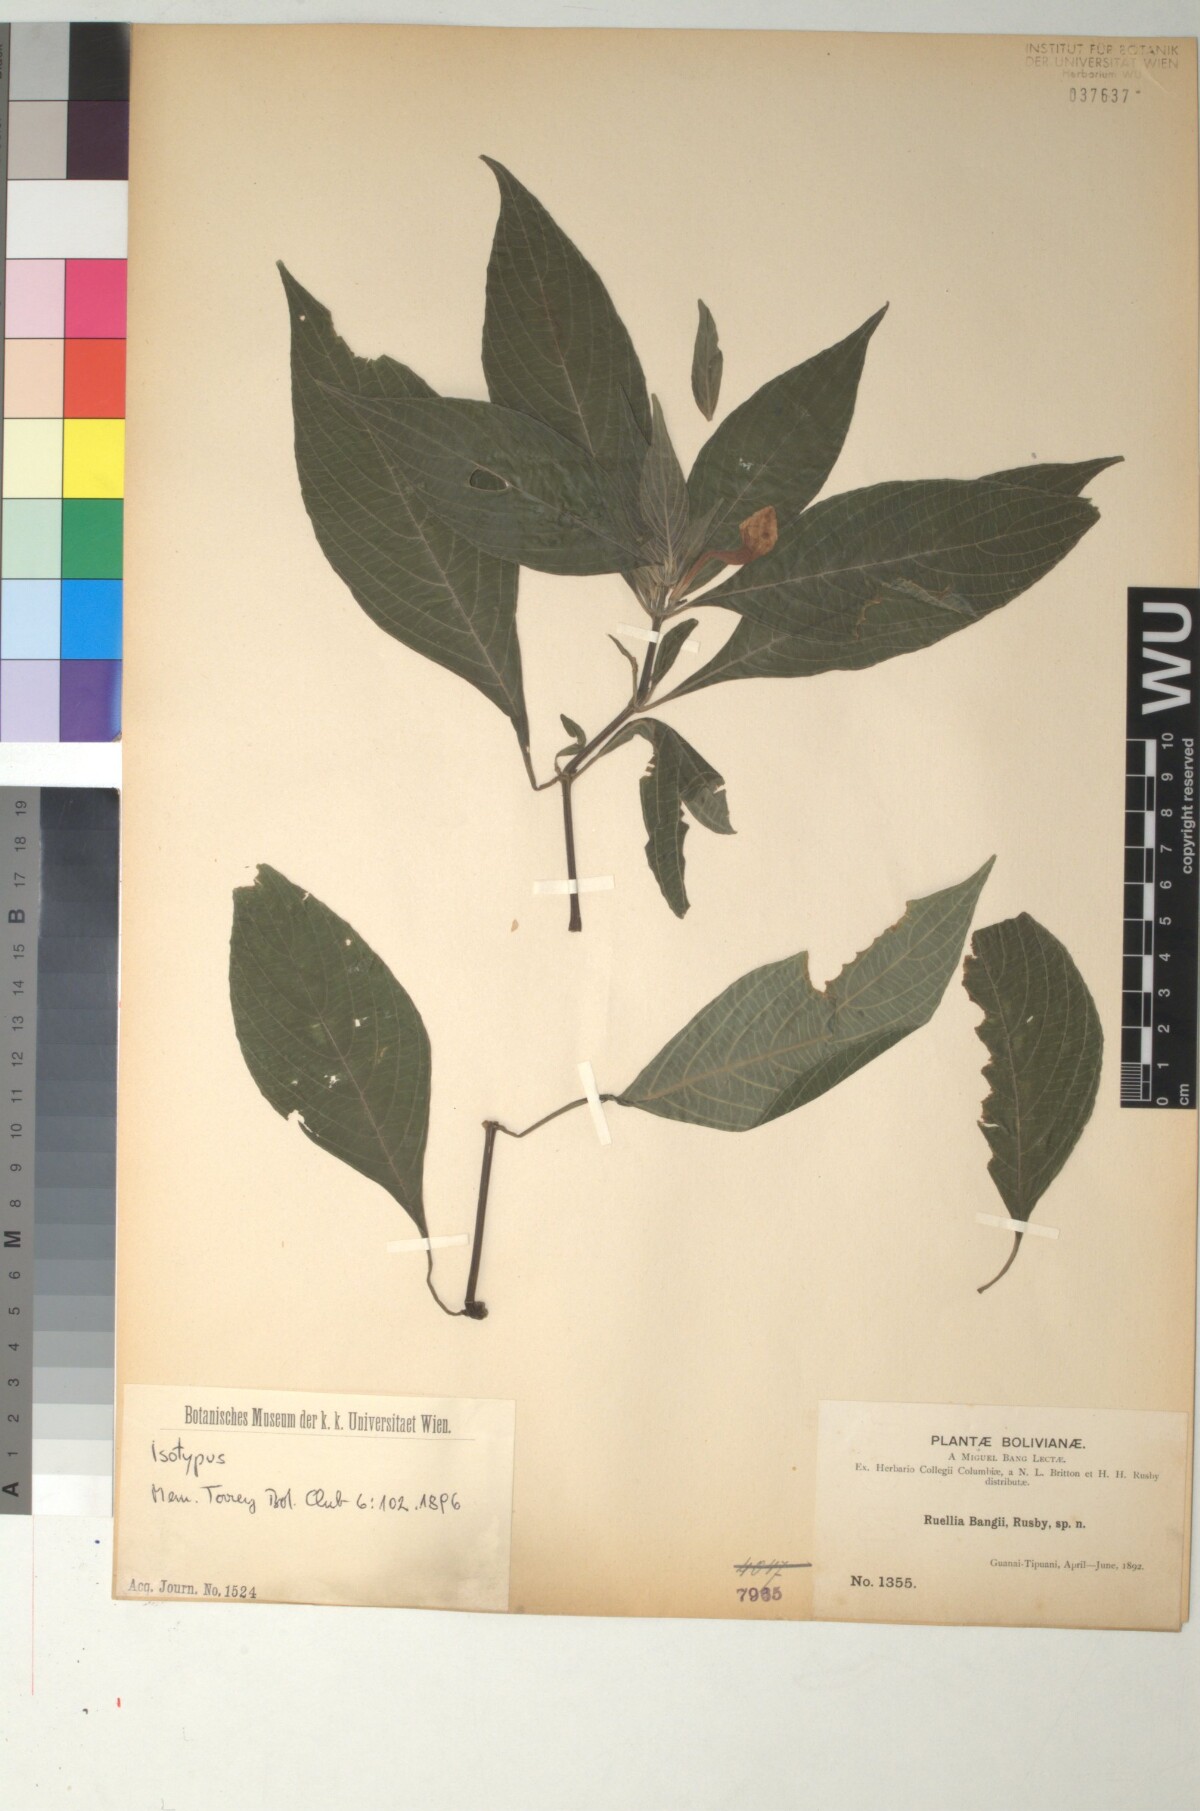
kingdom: Plantae
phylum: Tracheophyta
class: Magnoliopsida
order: Lamiales
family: Acanthaceae
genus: Ruellia
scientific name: Ruellia jussieuoides
